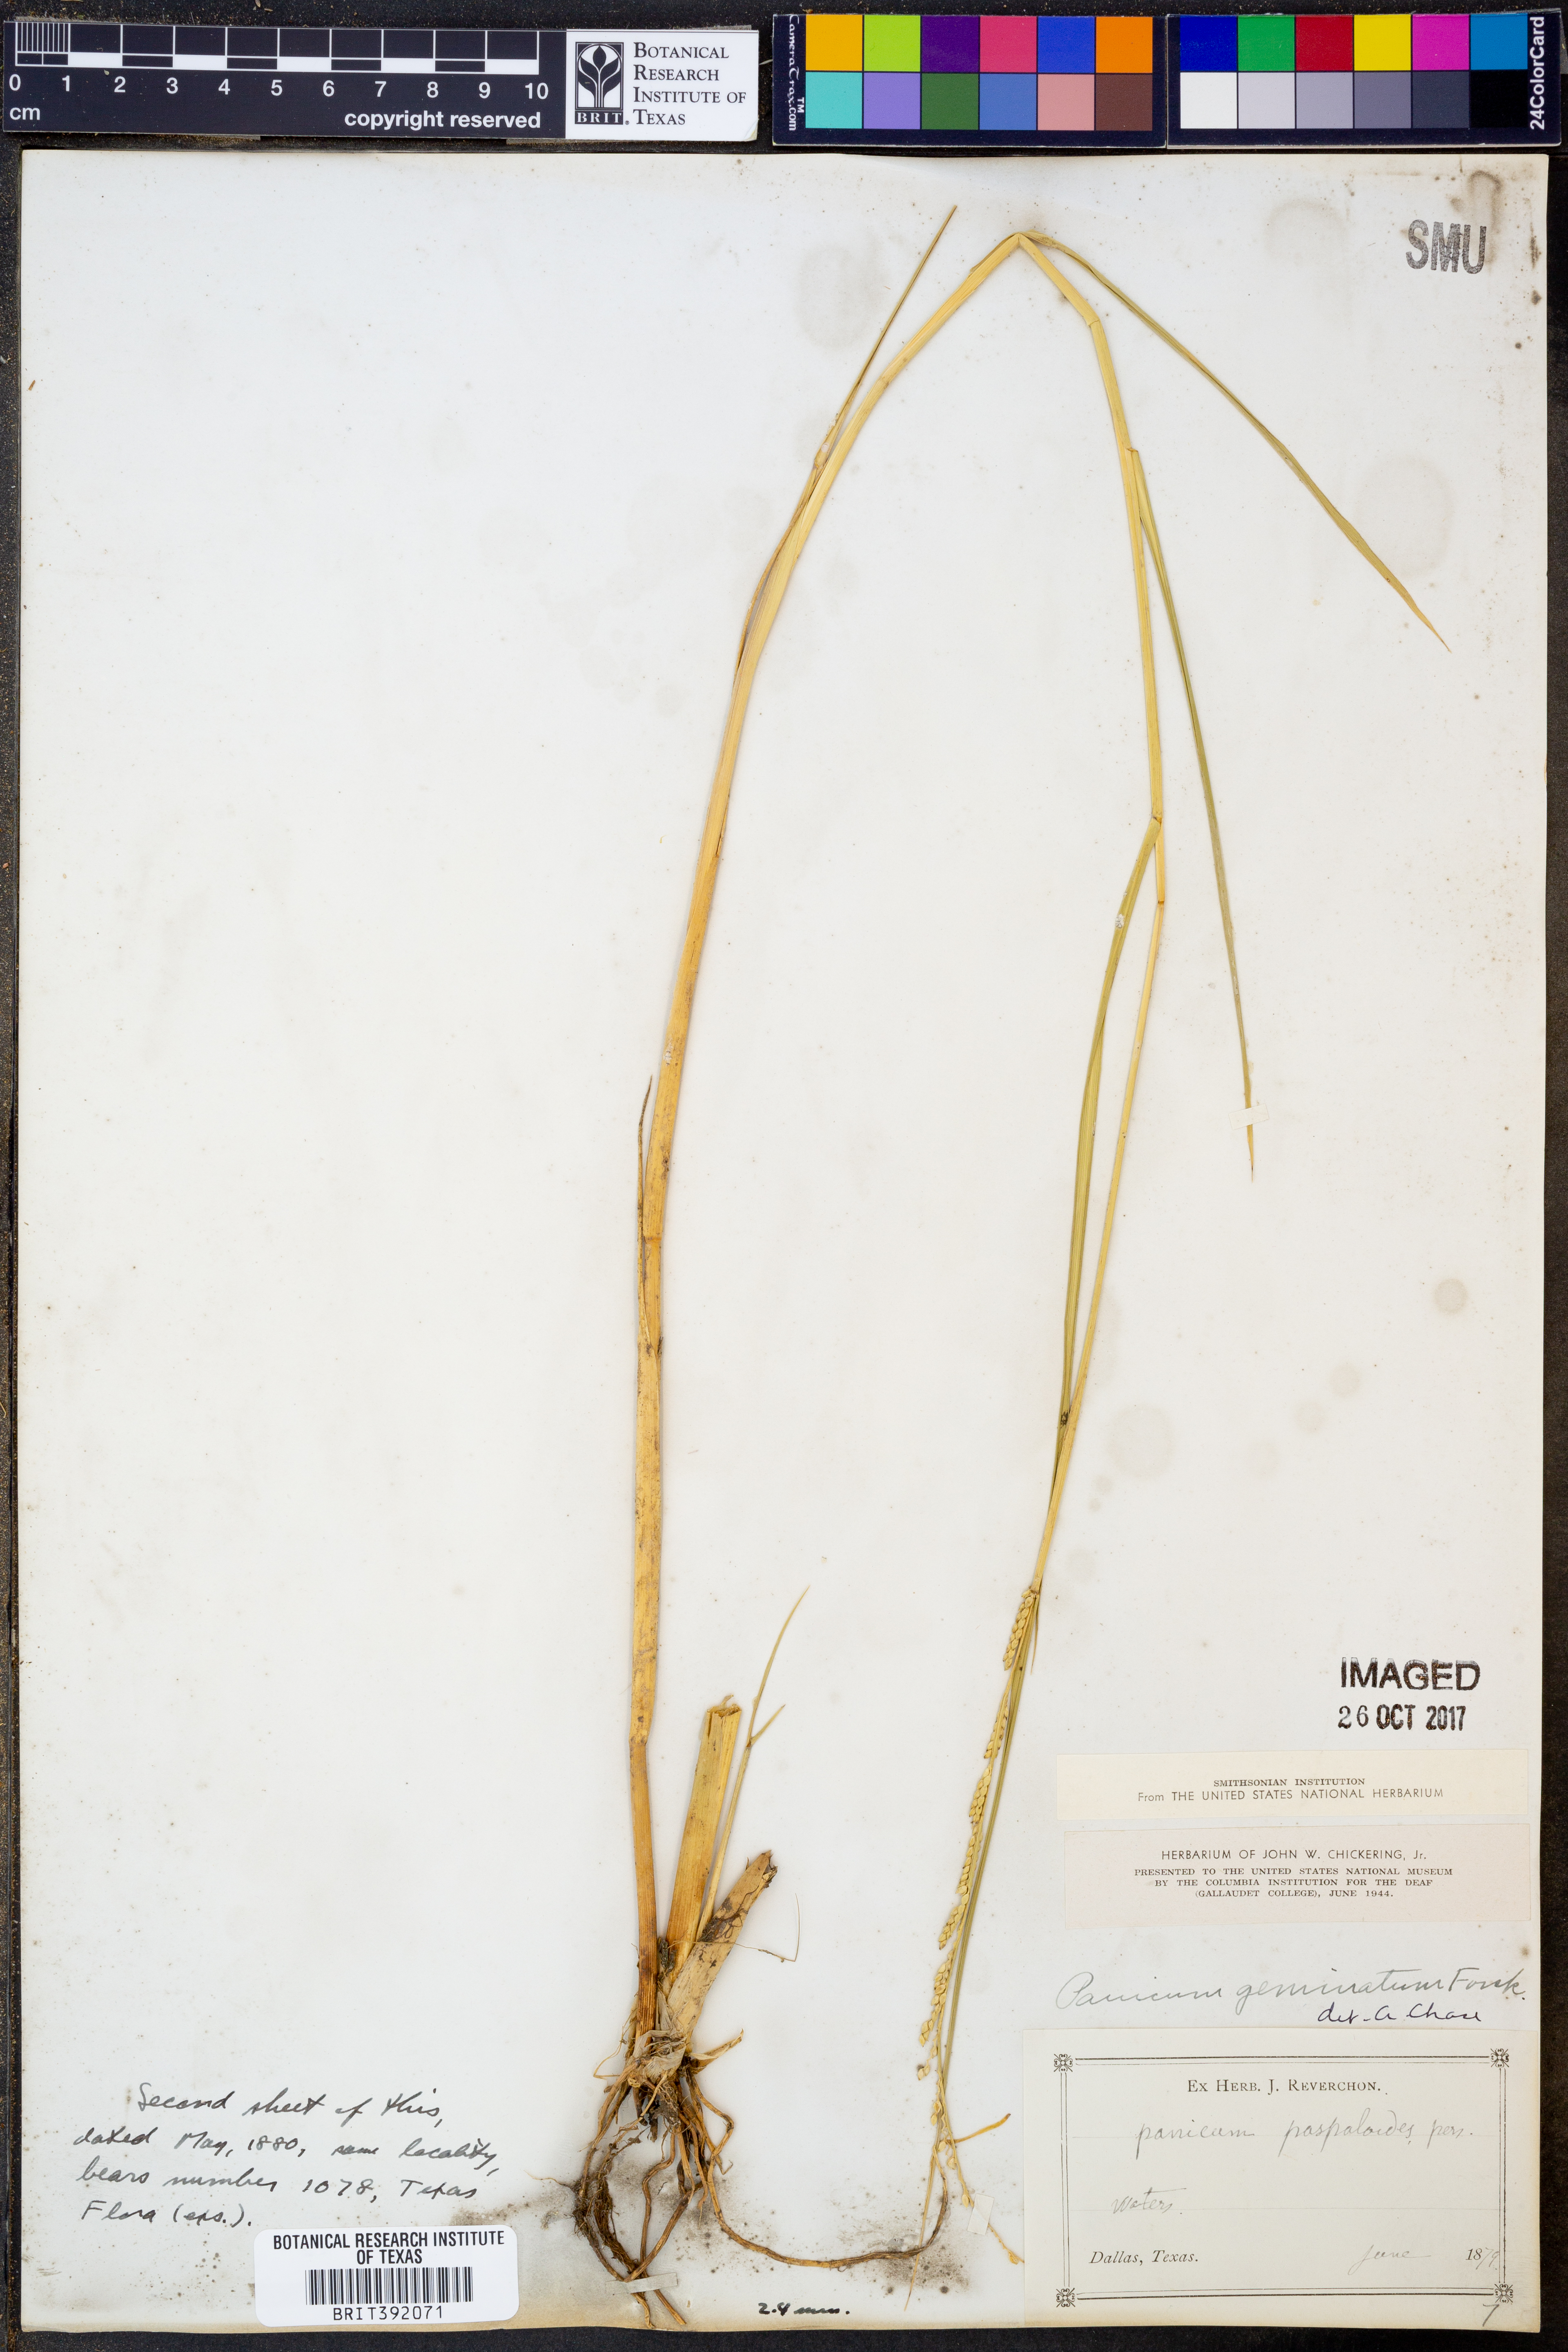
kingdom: Plantae
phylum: Tracheophyta
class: Liliopsida
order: Poales
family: Poaceae
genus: Setaria
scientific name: Setaria geminata
